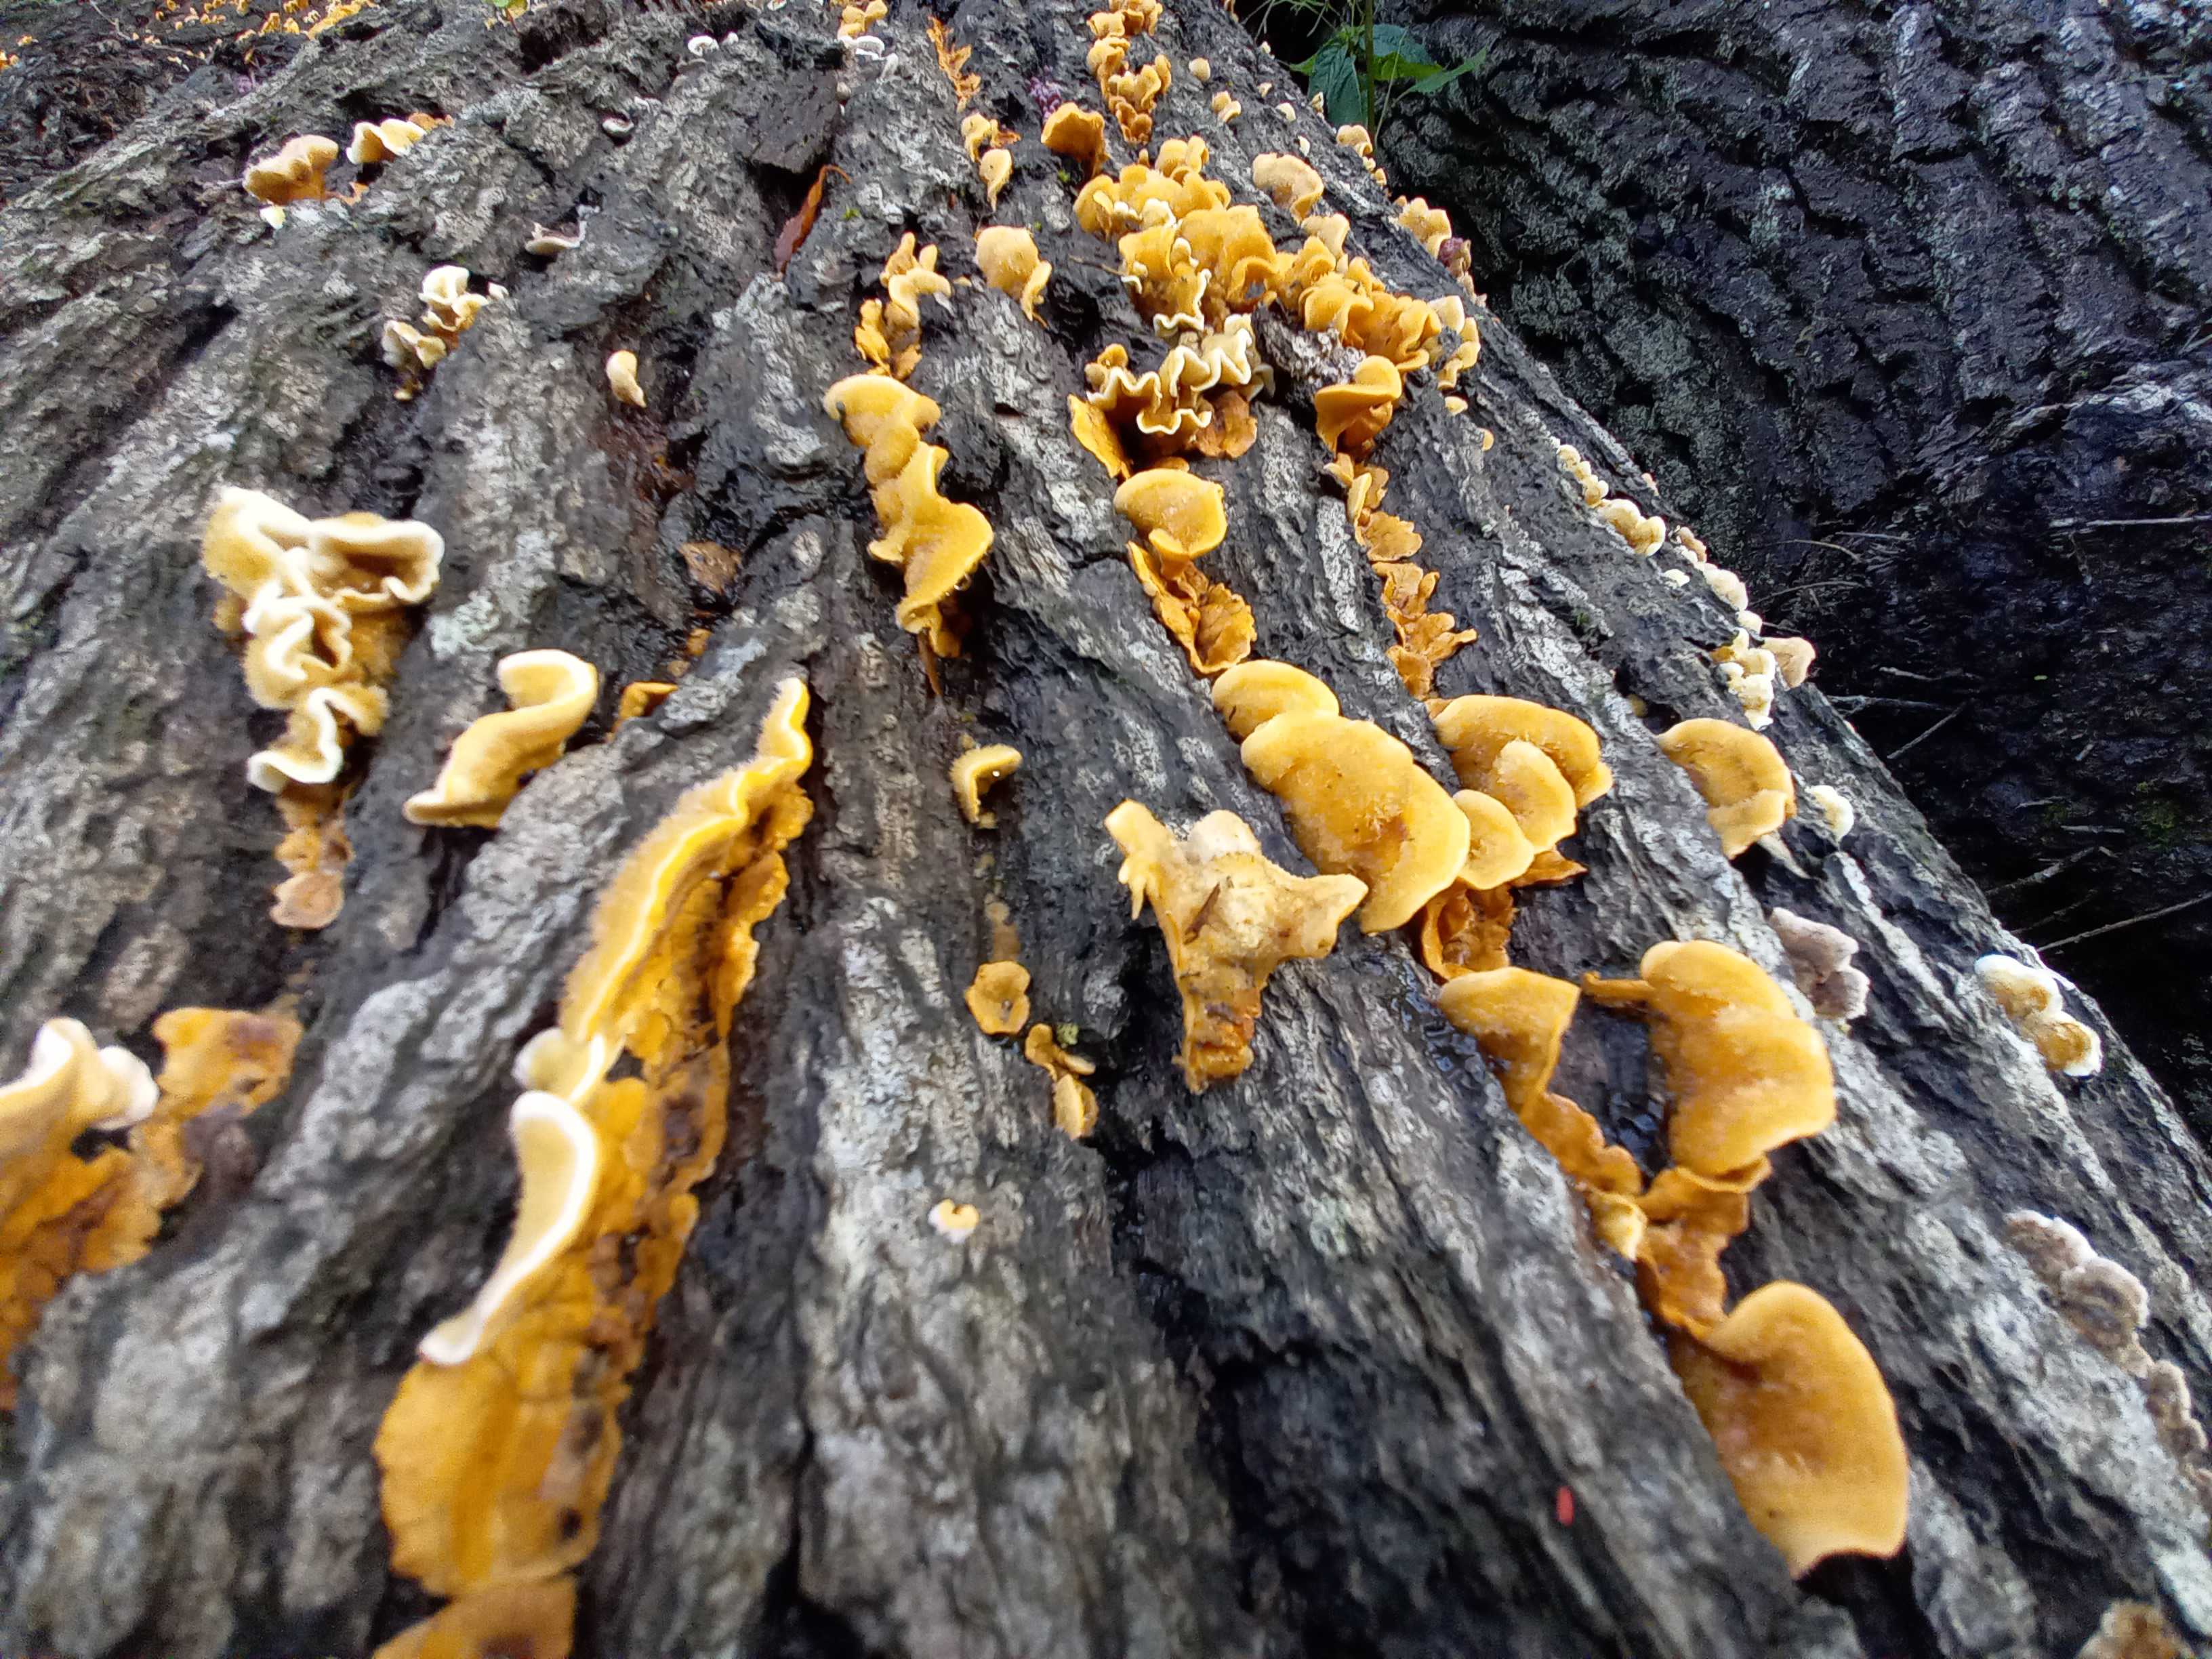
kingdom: Fungi
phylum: Basidiomycota
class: Agaricomycetes
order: Russulales
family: Stereaceae
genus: Stereum
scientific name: Stereum hirsutum
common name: håret lædersvamp
